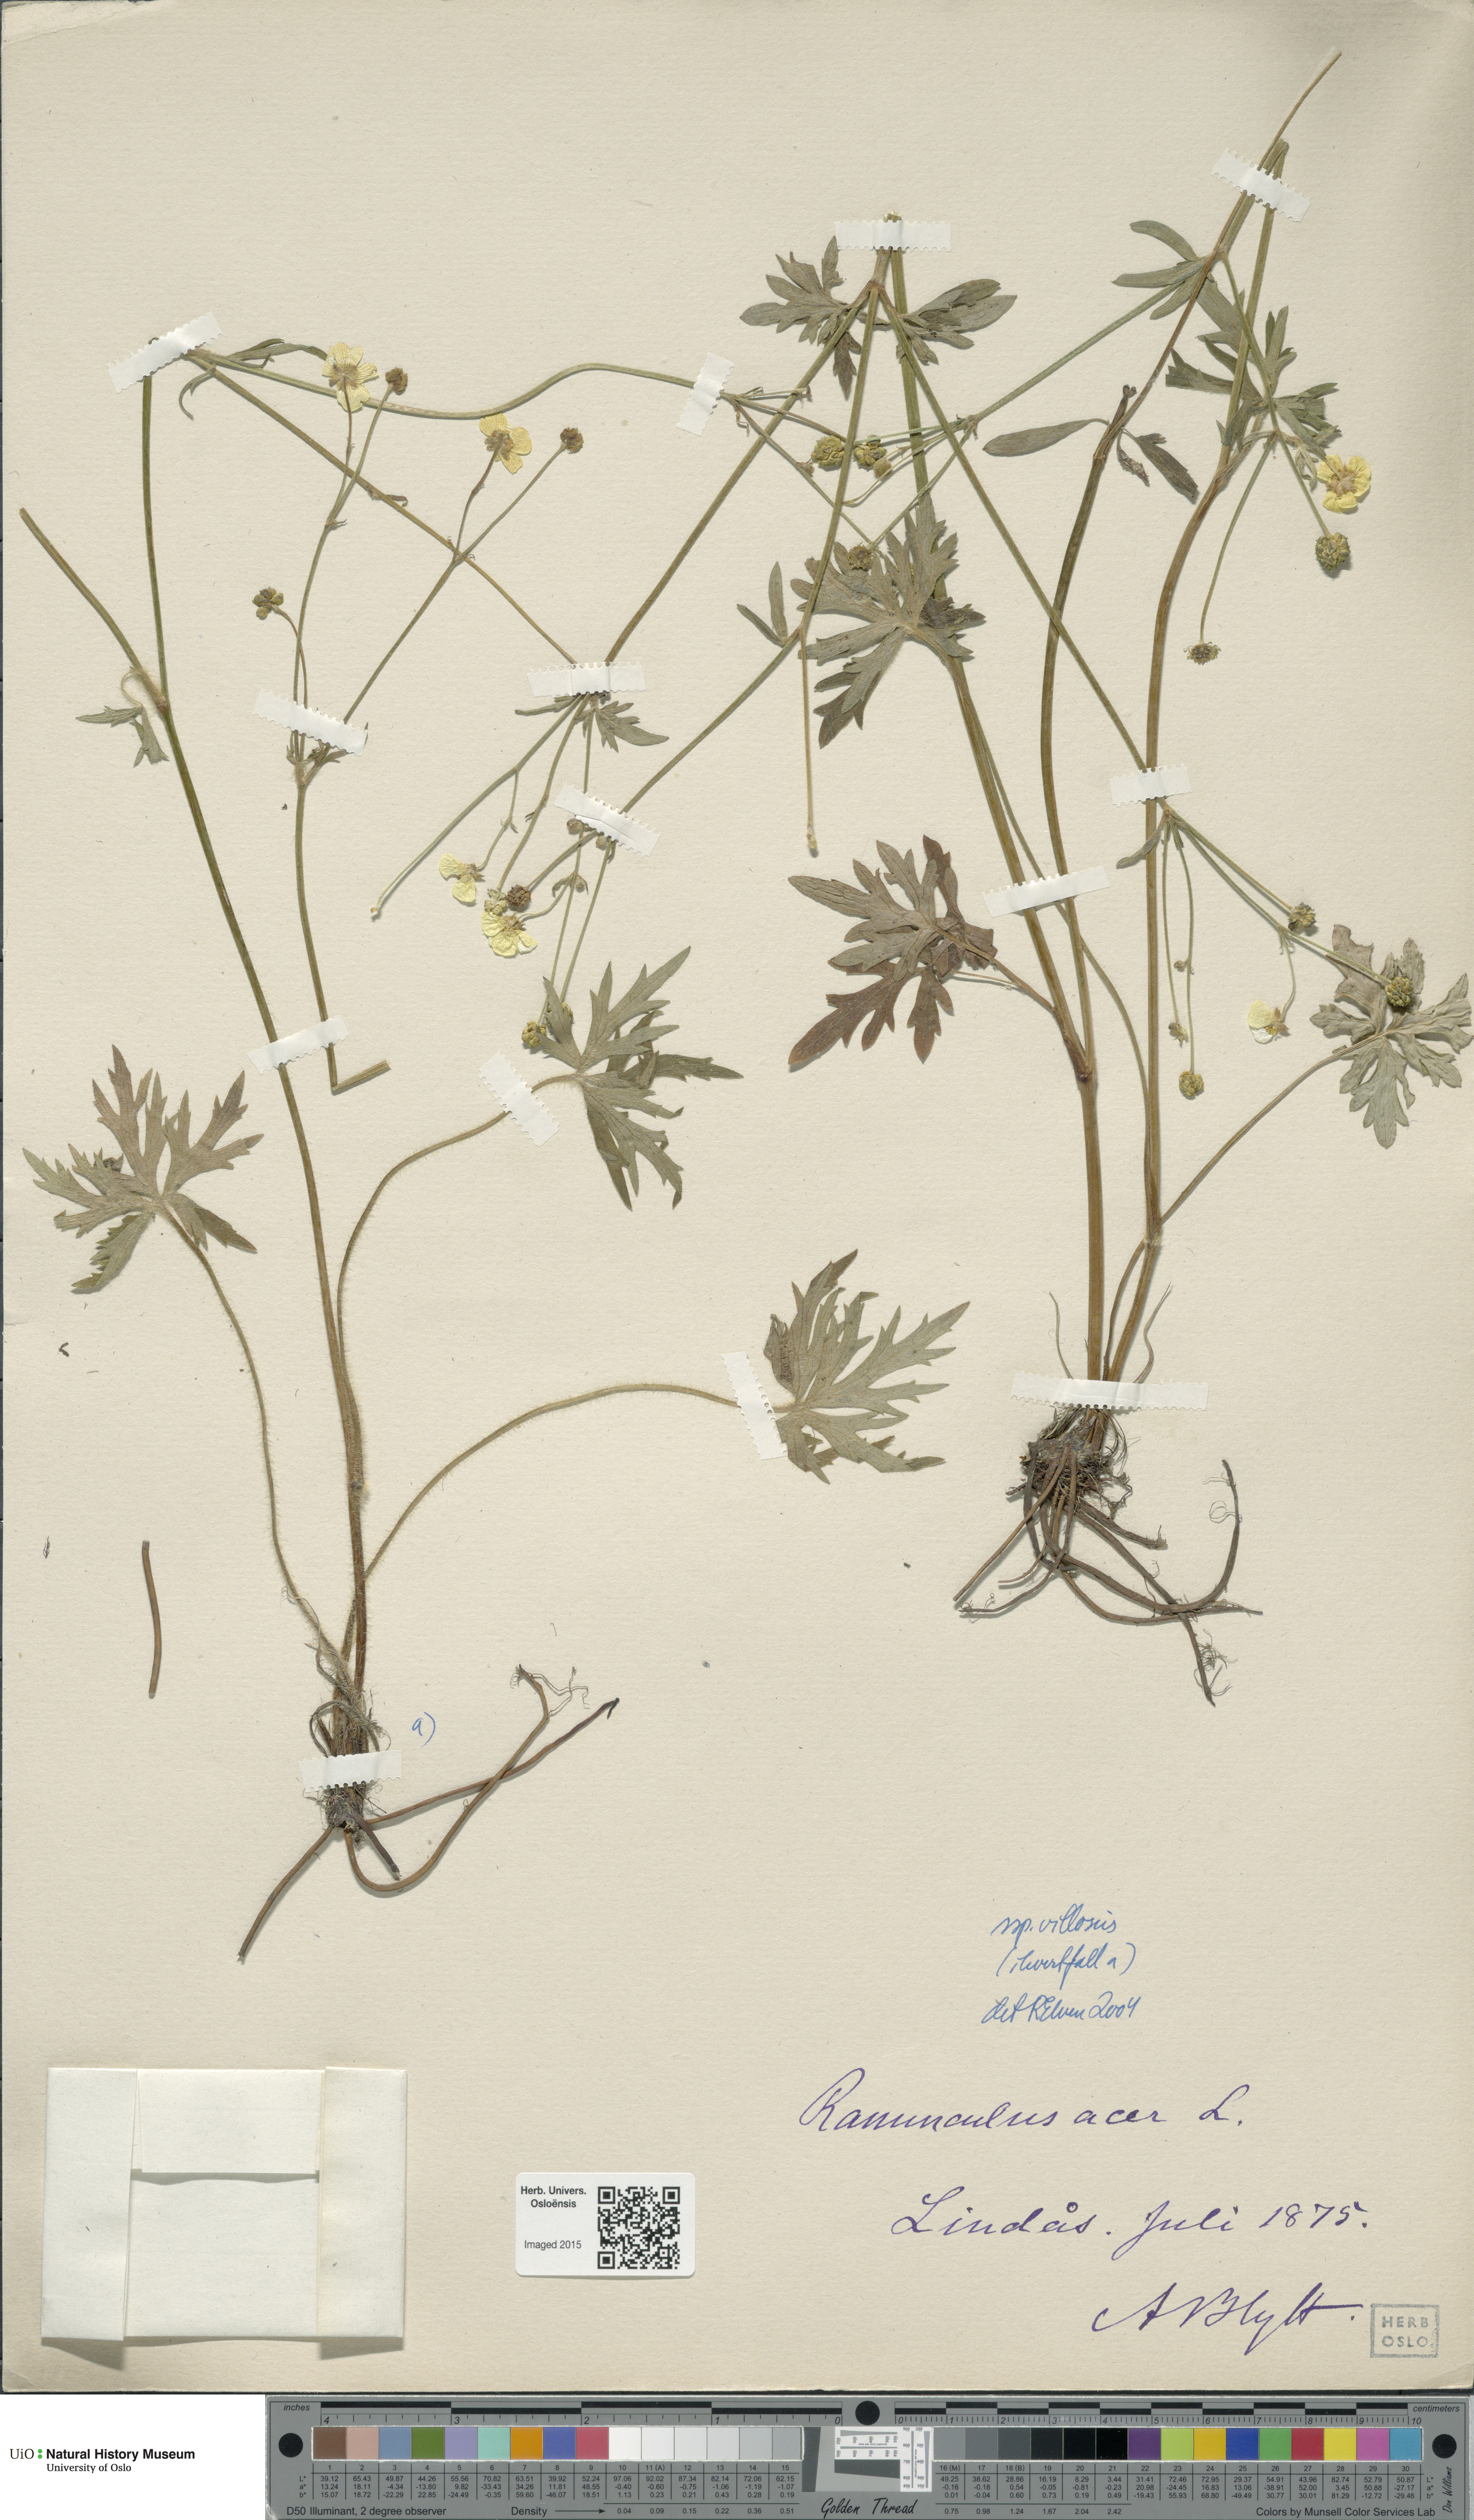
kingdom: Plantae
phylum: Tracheophyta
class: Magnoliopsida
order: Ranunculales
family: Ranunculaceae
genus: Ranunculus
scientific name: Ranunculus propinquus
